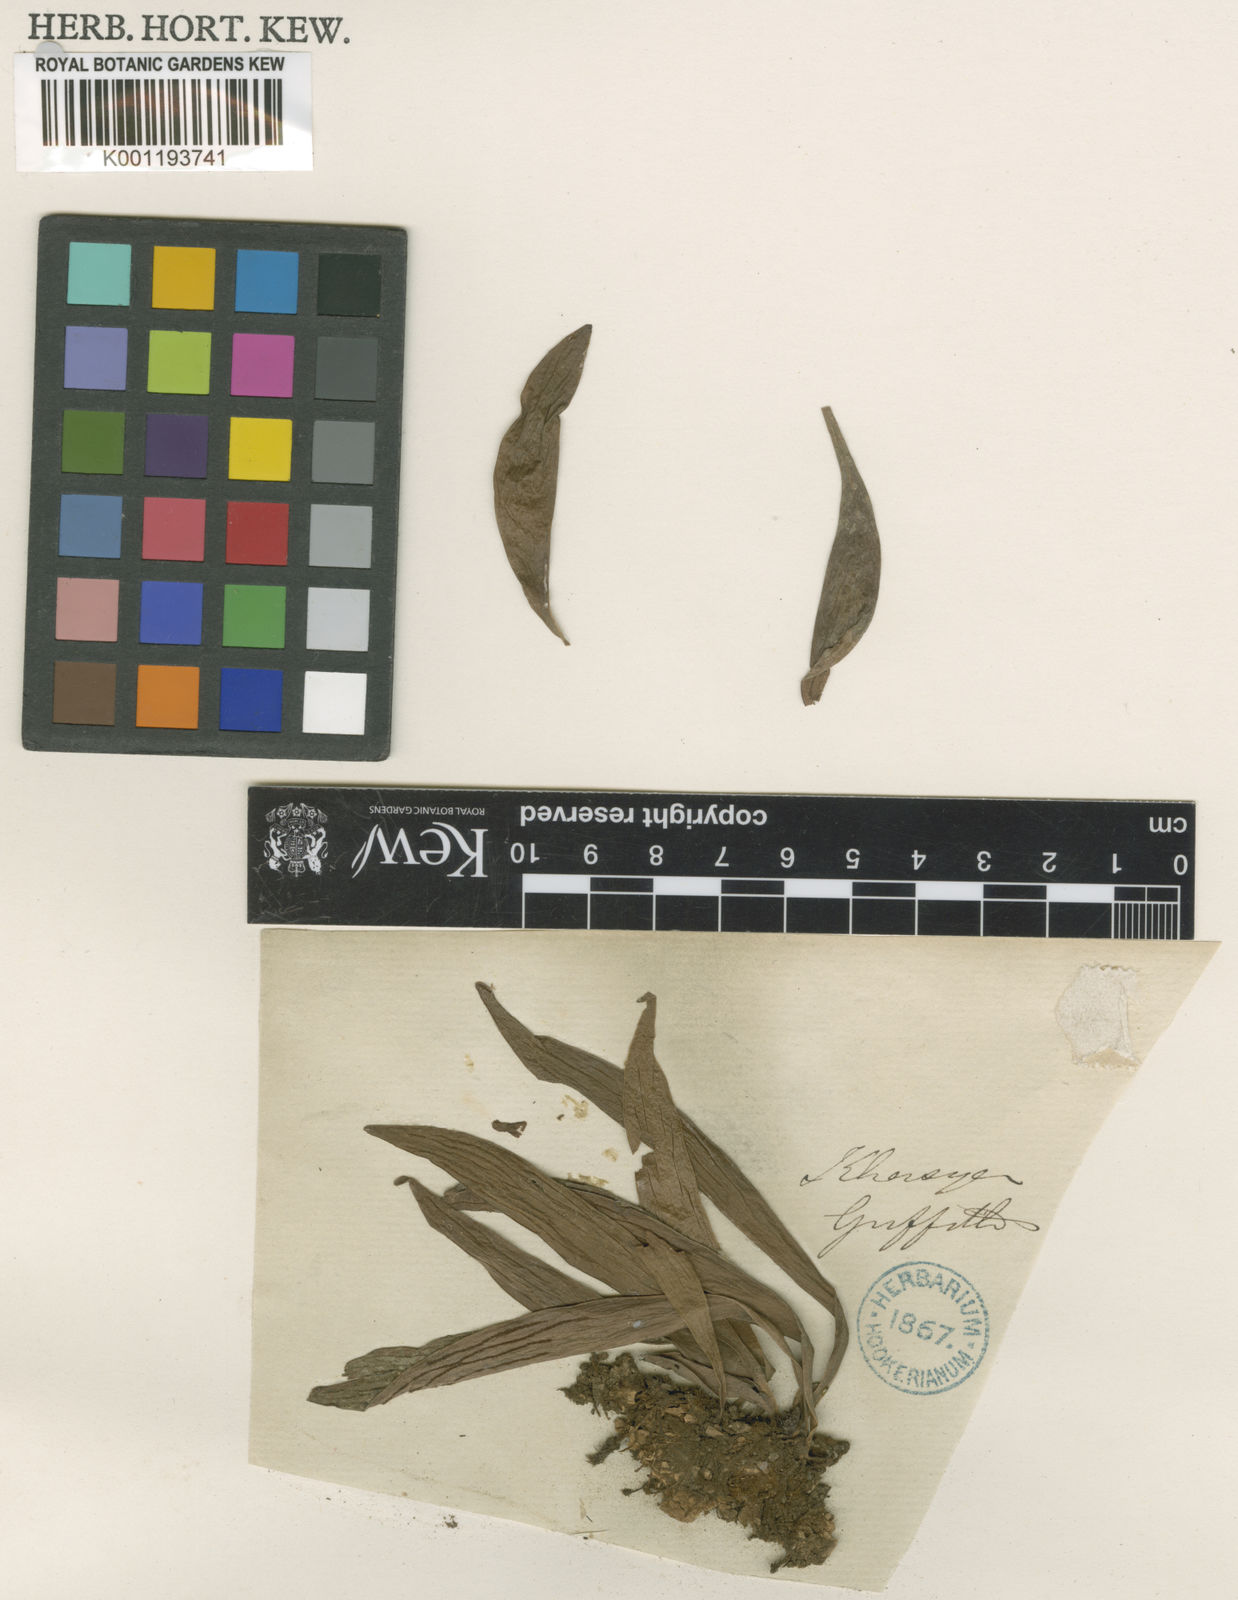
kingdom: Plantae
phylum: Tracheophyta
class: Polypodiopsida
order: Polypodiales
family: Pteridaceae
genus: Antrophyum
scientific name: Antrophyum
